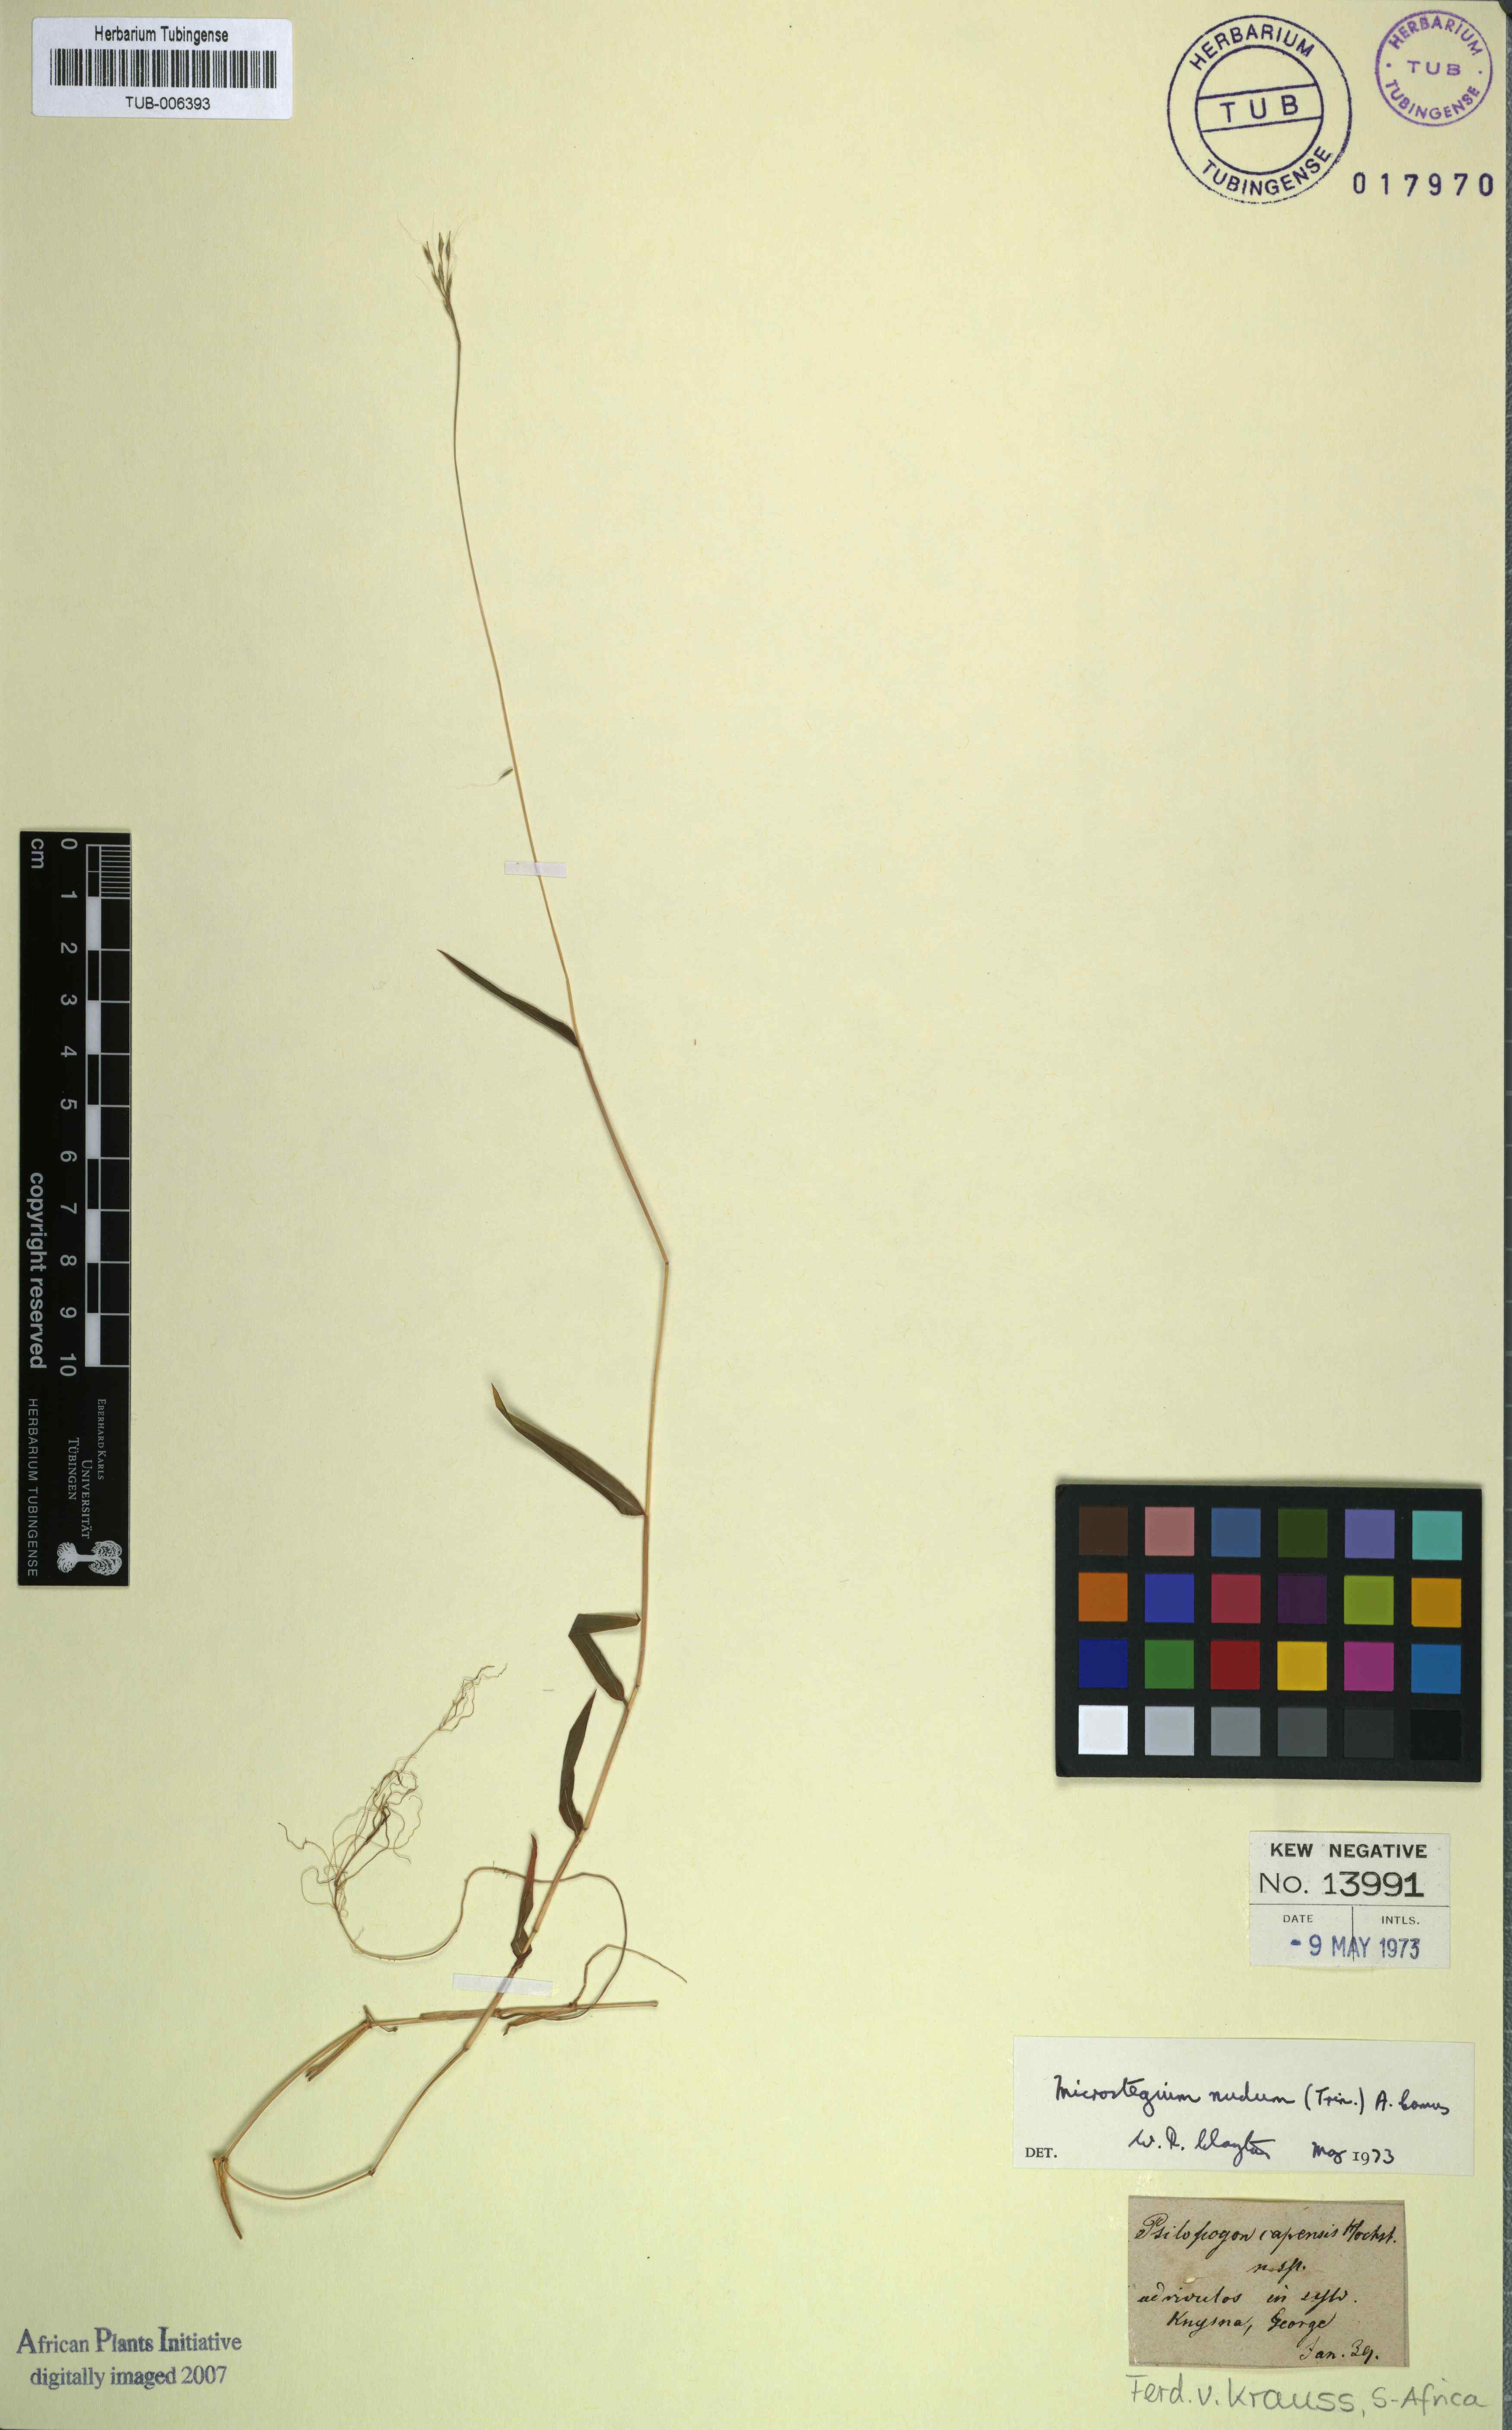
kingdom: Plantae
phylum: Tracheophyta
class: Liliopsida
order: Poales
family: Poaceae
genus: Microstegium
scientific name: Microstegium nudum
